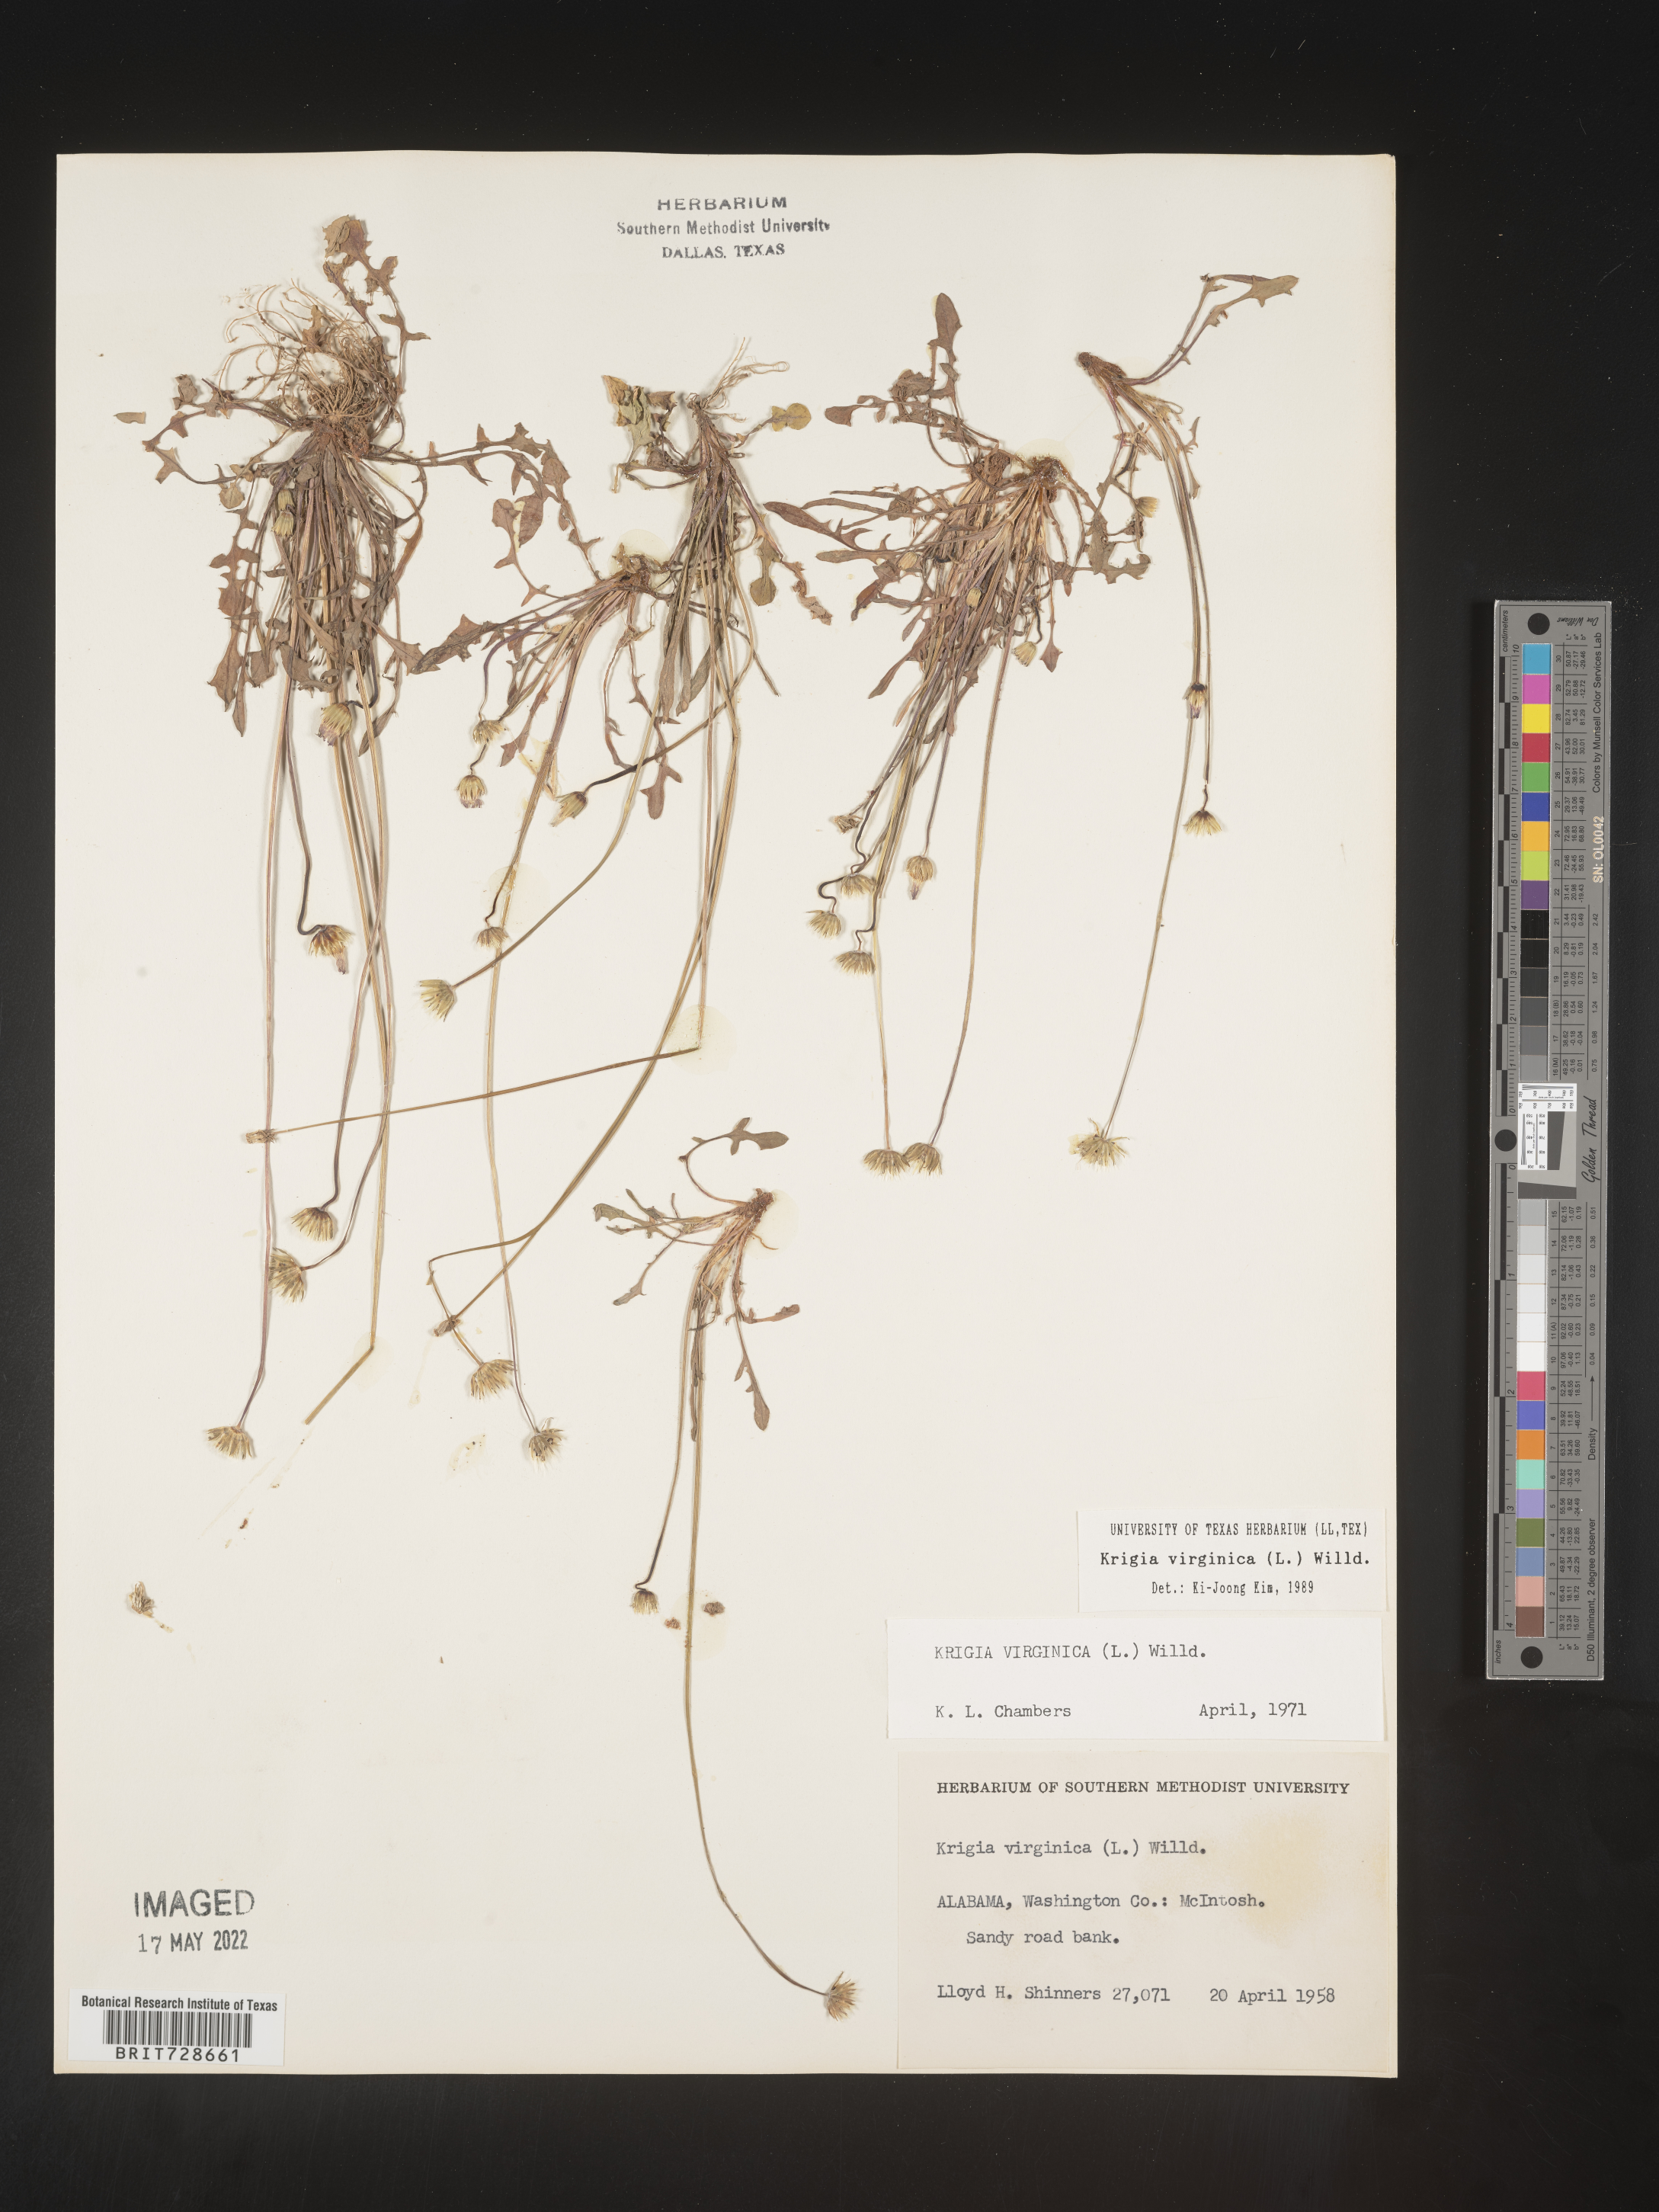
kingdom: Plantae
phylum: Tracheophyta
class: Magnoliopsida
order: Asterales
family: Asteraceae
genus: Krigia
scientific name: Krigia virginica
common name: Virginia dwarf-dandelion
